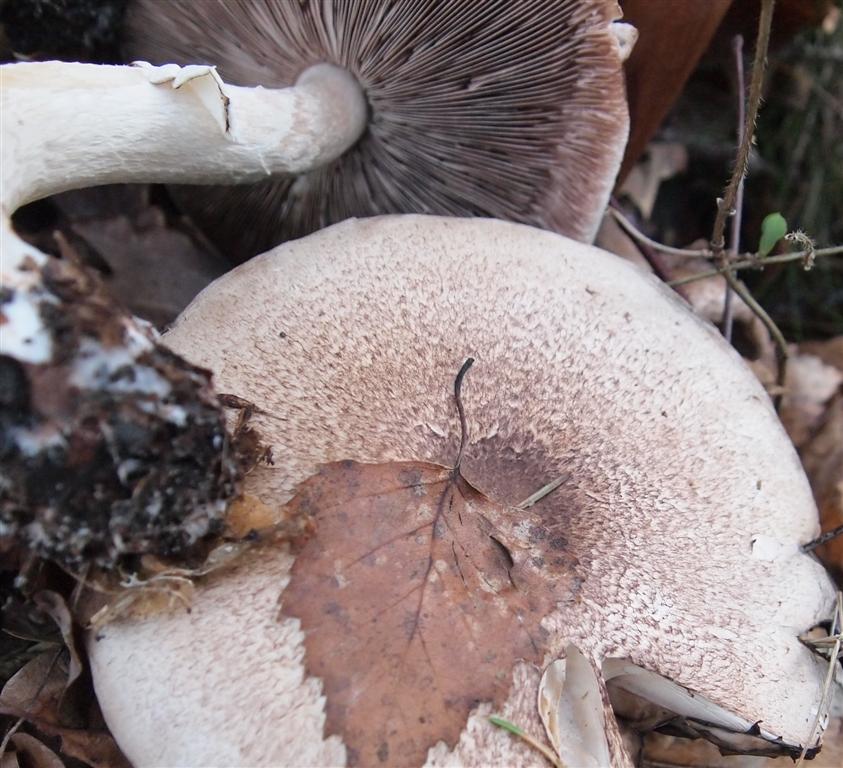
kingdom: Fungi
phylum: Basidiomycota
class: Agaricomycetes
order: Agaricales
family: Agaricaceae
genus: Agaricus
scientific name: Agaricus impudicus
